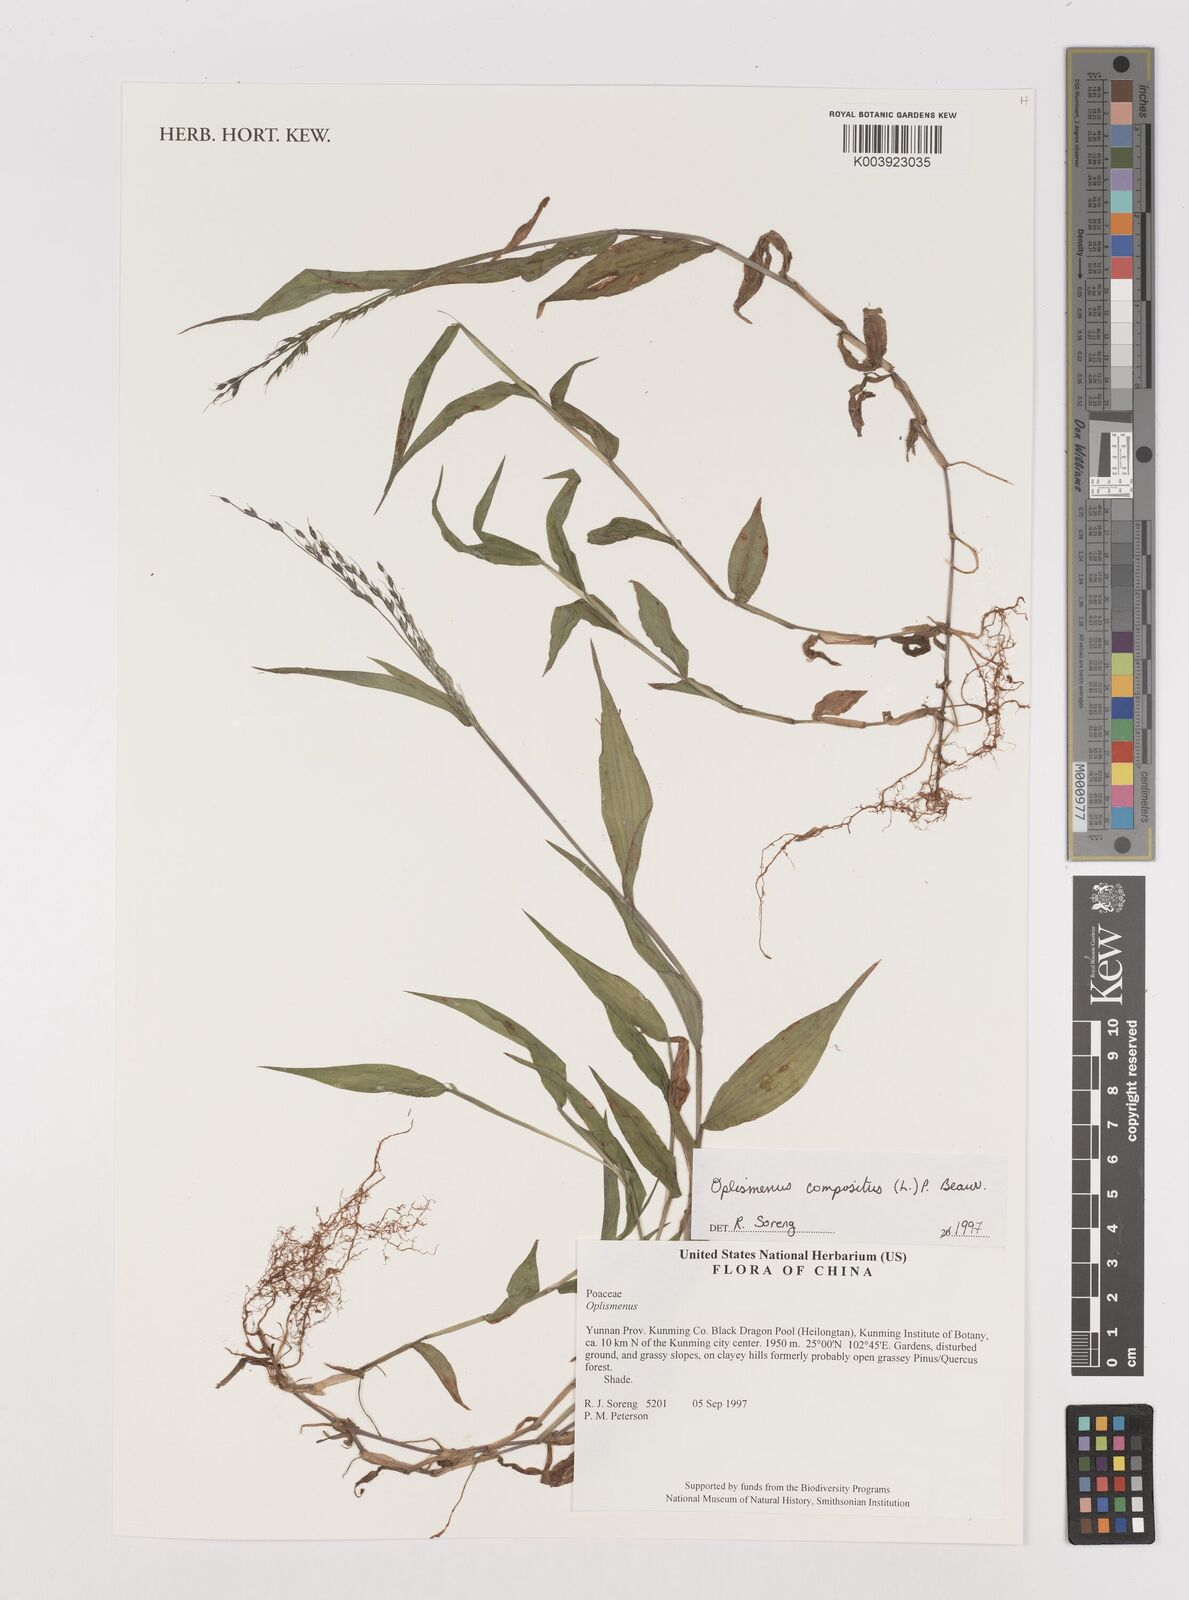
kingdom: Plantae
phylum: Tracheophyta
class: Liliopsida
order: Poales
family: Poaceae
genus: Oplismenus
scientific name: Oplismenus compositus
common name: Running mountain grass
